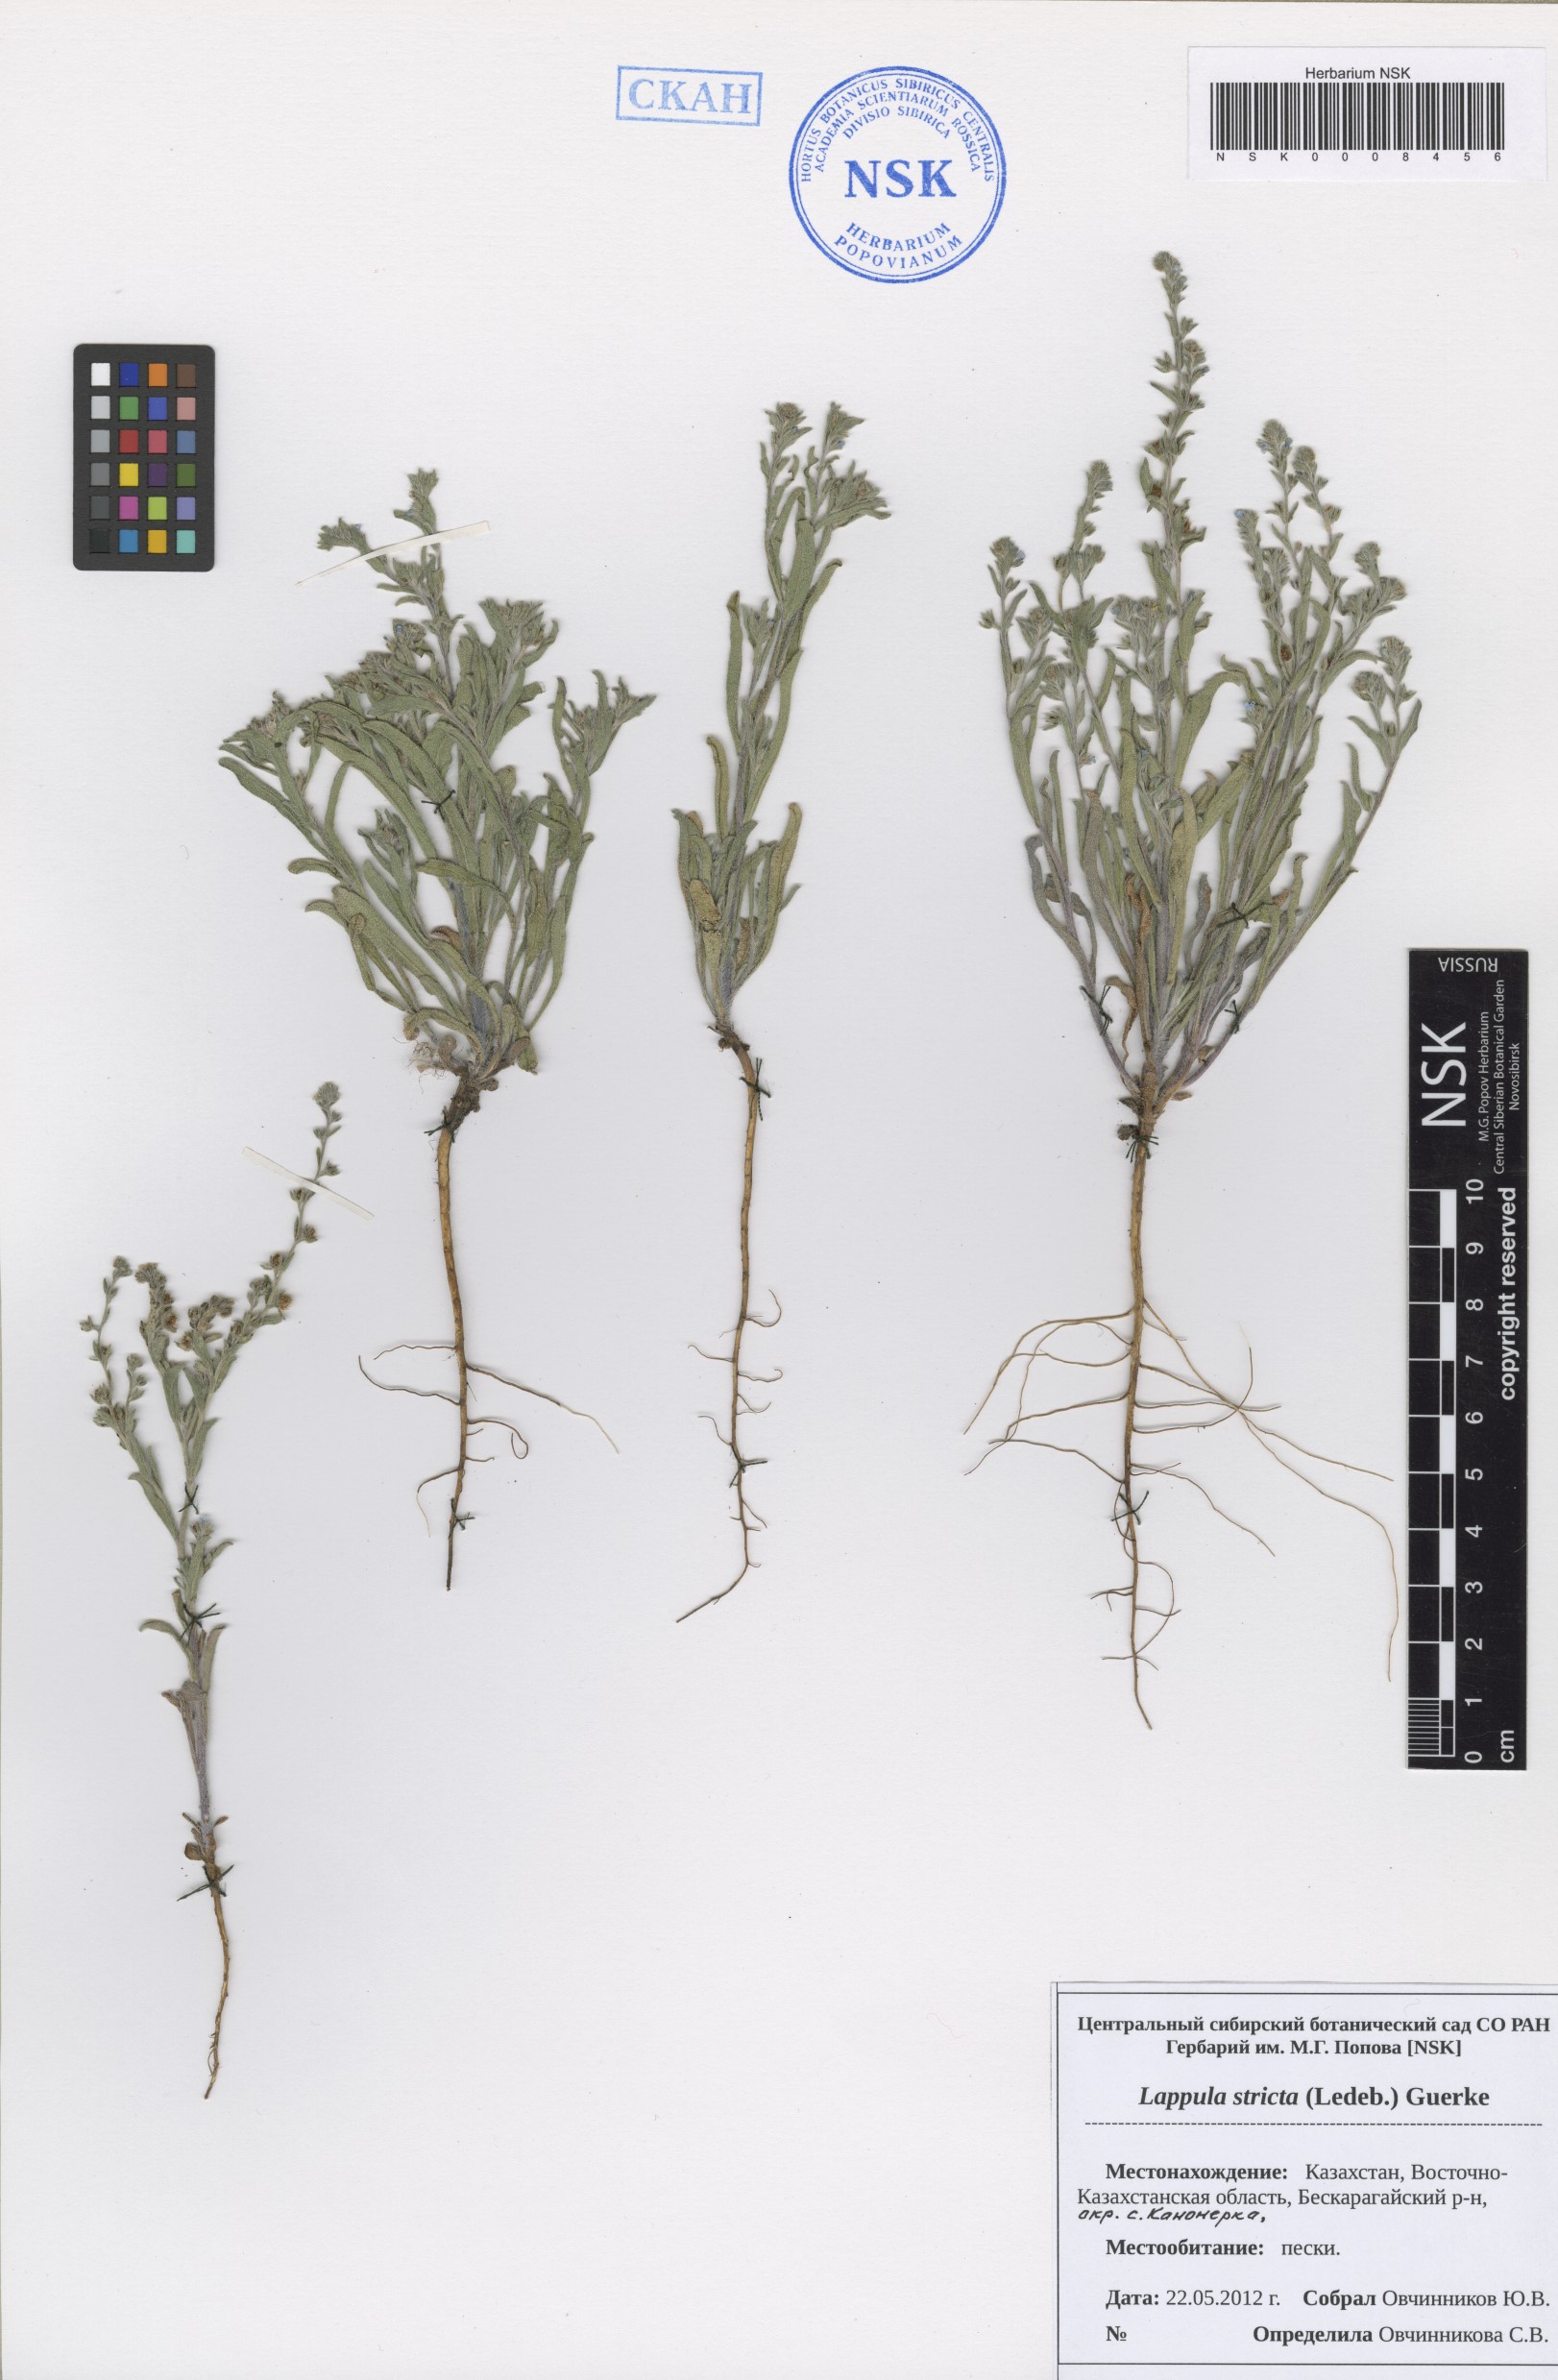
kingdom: Plantae
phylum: Tracheophyta
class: Magnoliopsida
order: Boraginales
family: Boraginaceae
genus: Lappula
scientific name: Lappula stricta
